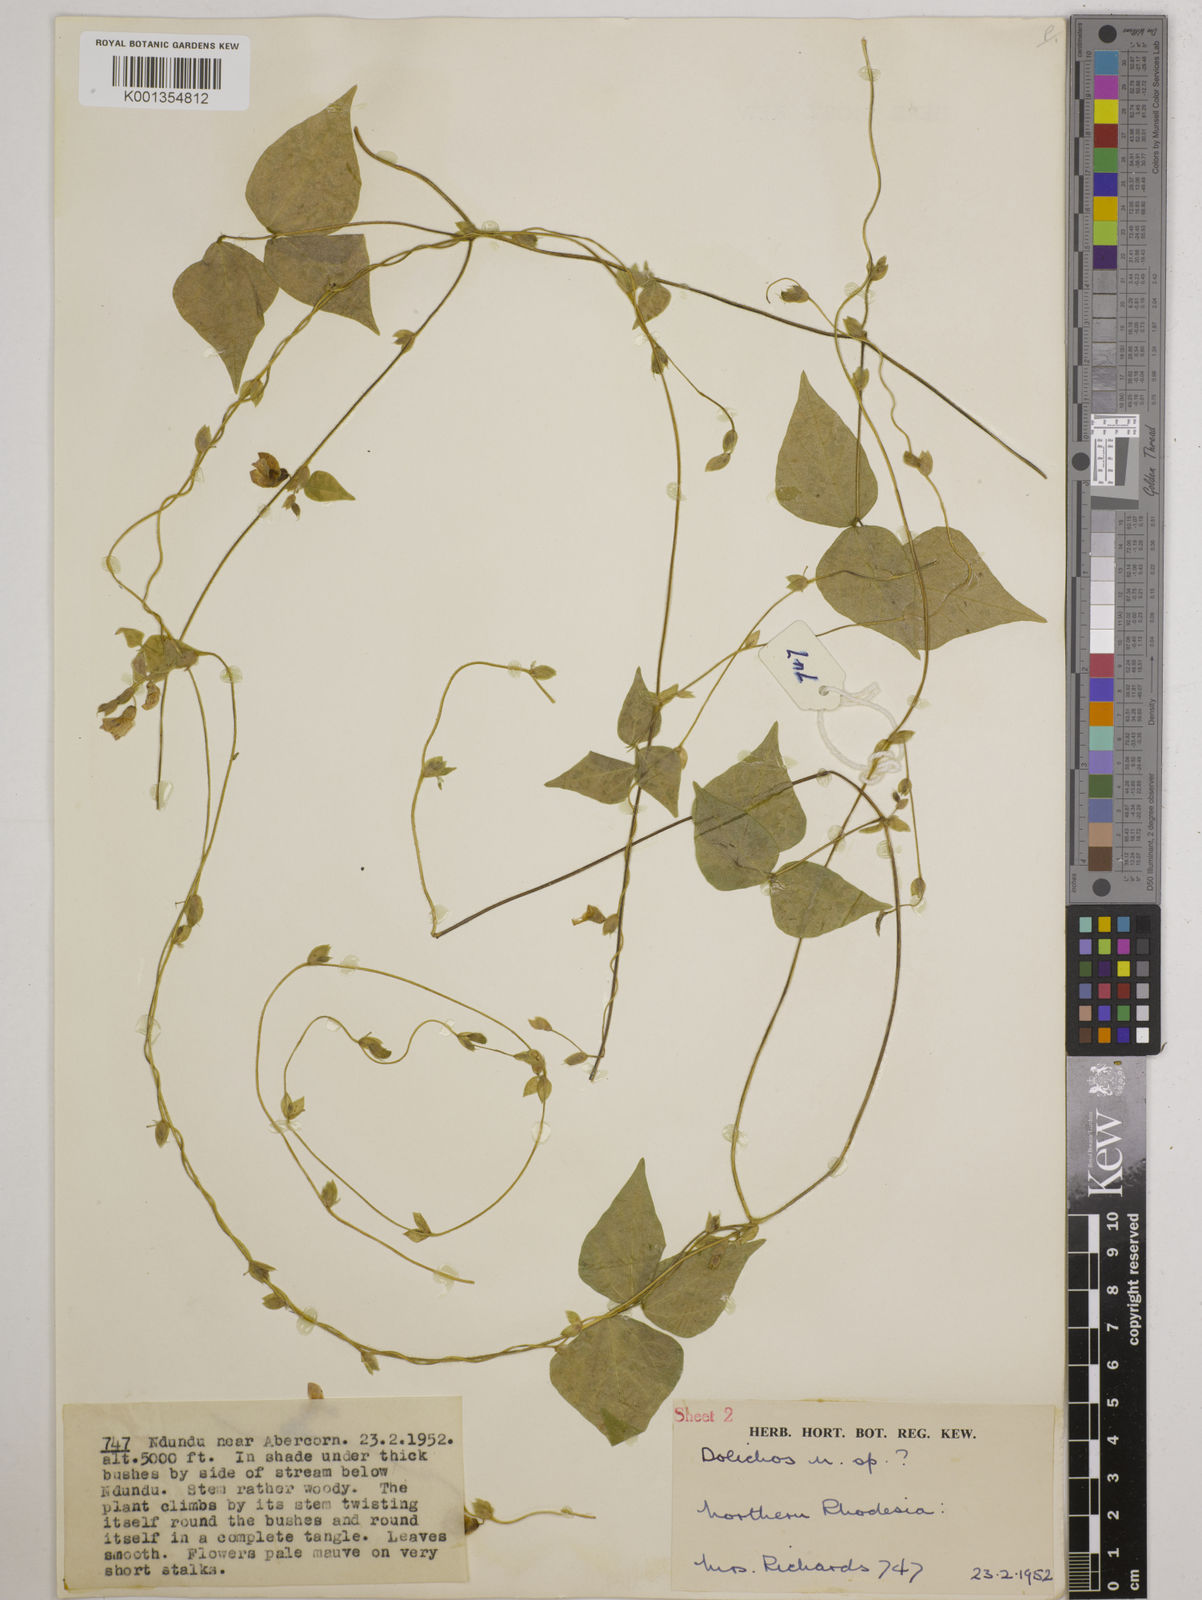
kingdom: Plantae
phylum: Tracheophyta
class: Magnoliopsida
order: Fabales
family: Fabaceae
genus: Dolichos
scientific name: Dolichos
